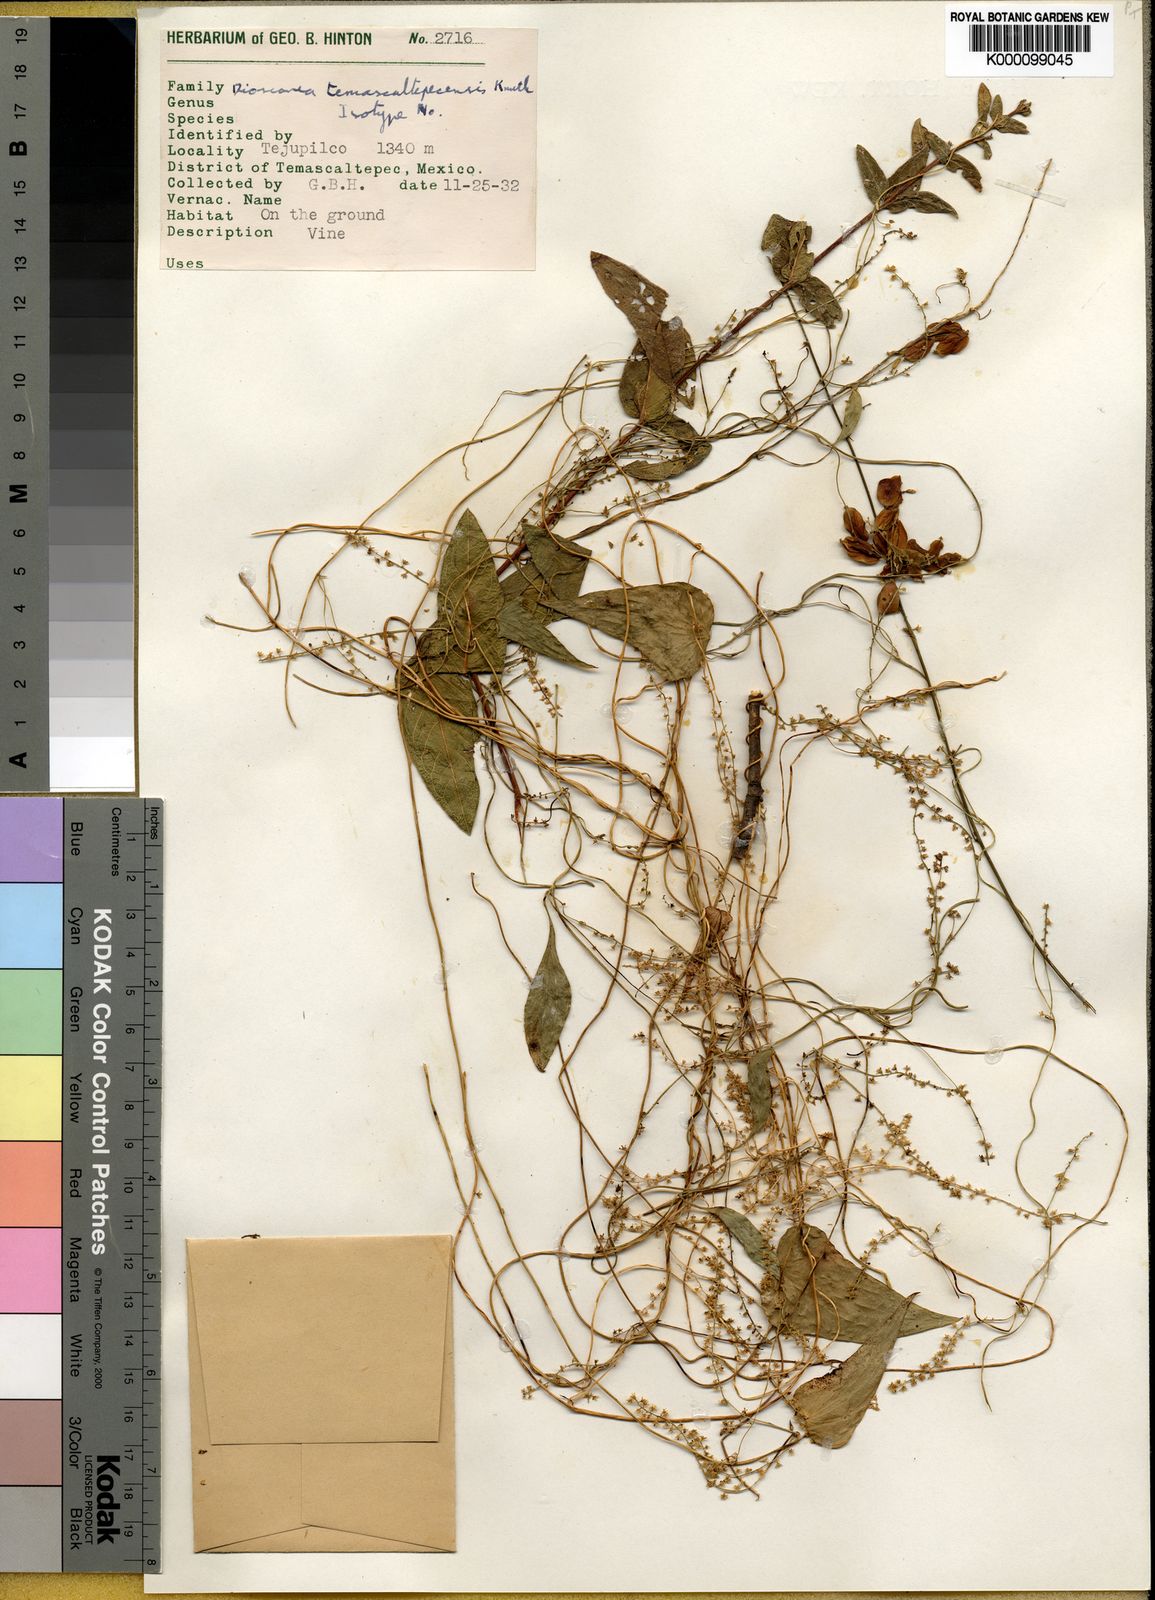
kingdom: Plantae
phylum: Tracheophyta
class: Liliopsida
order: Dioscoreales
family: Dioscoreaceae
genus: Dioscorea
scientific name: Dioscorea temascaltepecensis
